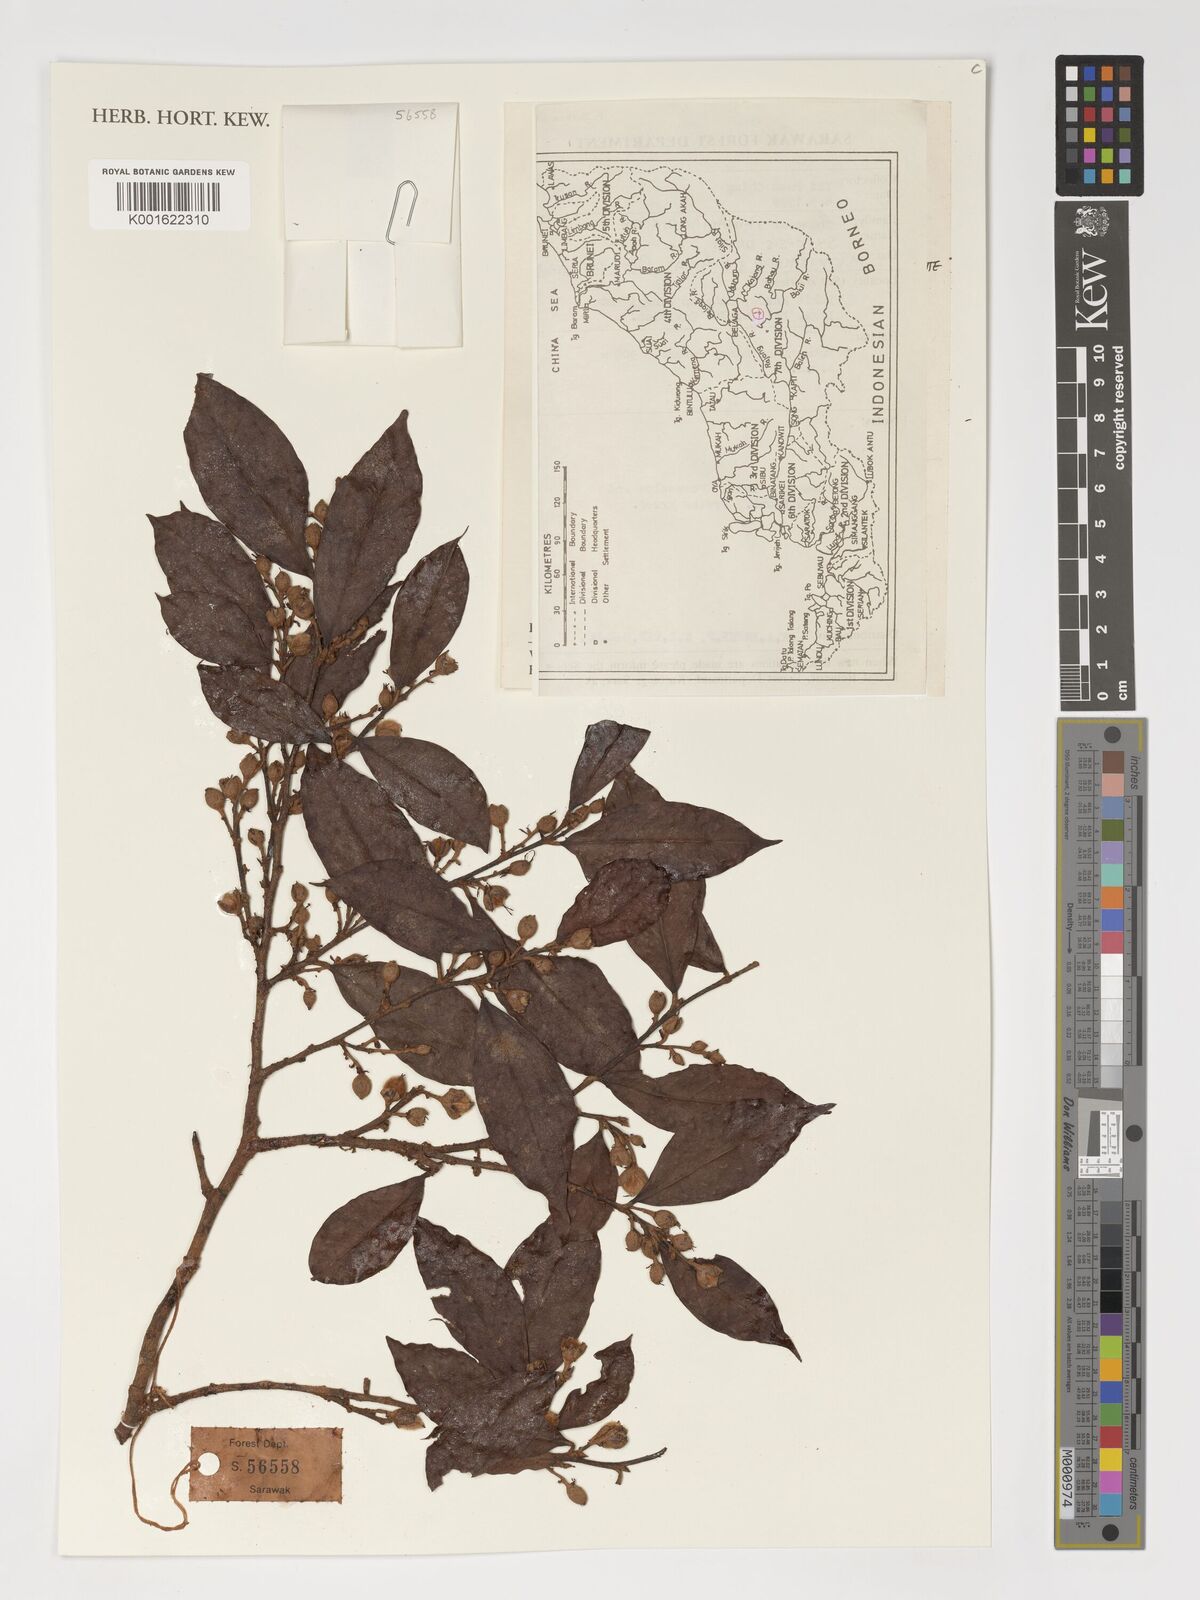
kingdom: Plantae
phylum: Tracheophyta
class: Magnoliopsida
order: Saxifragales
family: Hamamelidaceae
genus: Sycopsis
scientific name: Sycopsis
